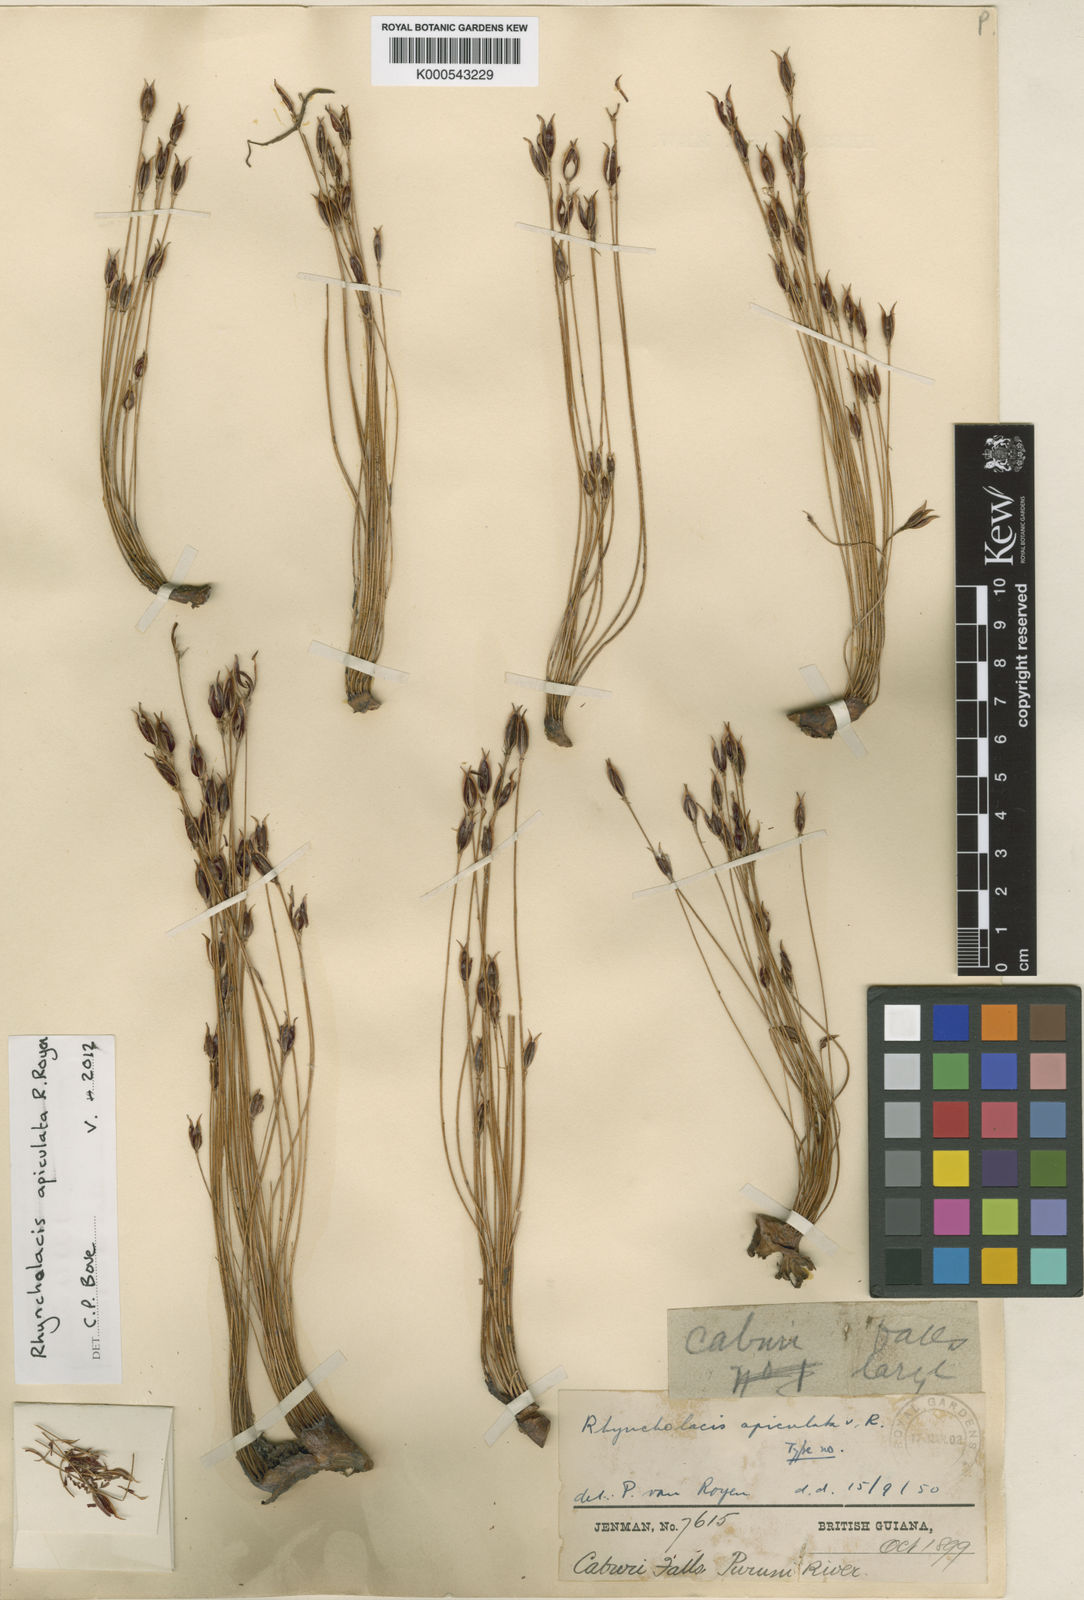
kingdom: Plantae
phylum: Tracheophyta
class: Magnoliopsida
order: Malpighiales
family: Podostemaceae
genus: Rhyncholacis
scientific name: Rhyncholacis apiculata
